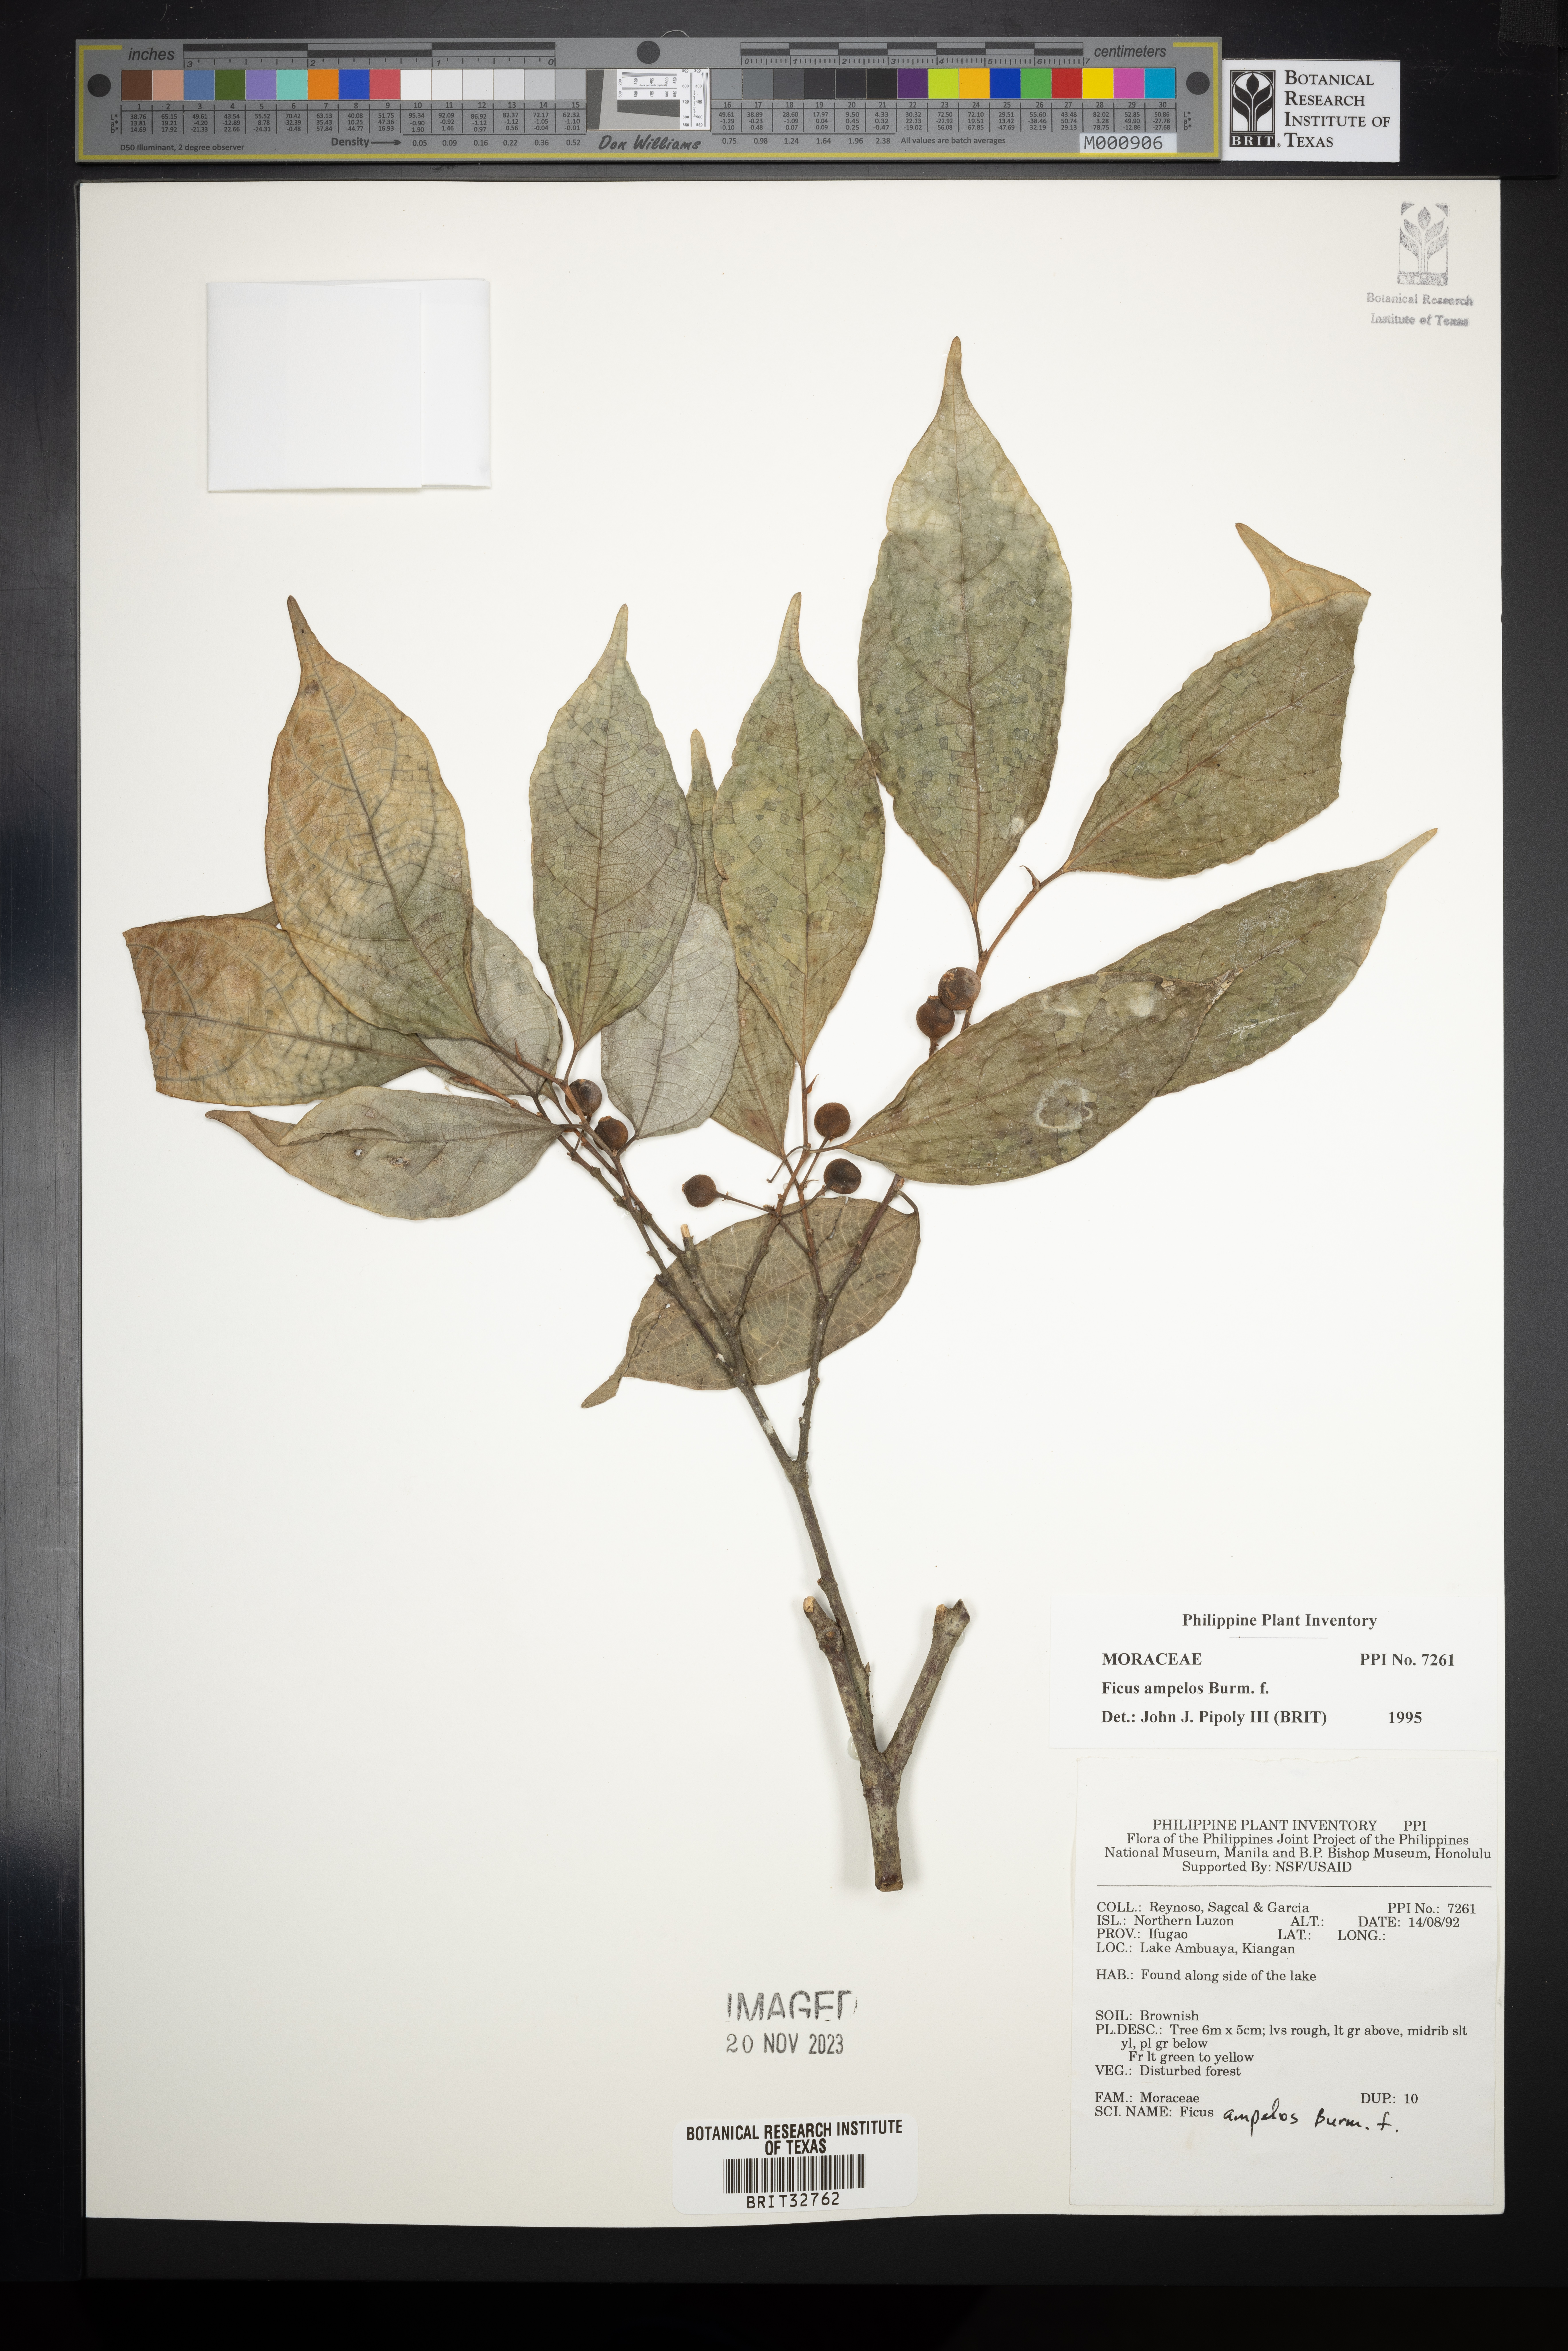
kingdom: Plantae
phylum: Tracheophyta
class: Magnoliopsida
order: Rosales
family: Moraceae
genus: Ficus
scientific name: Ficus ampelos
